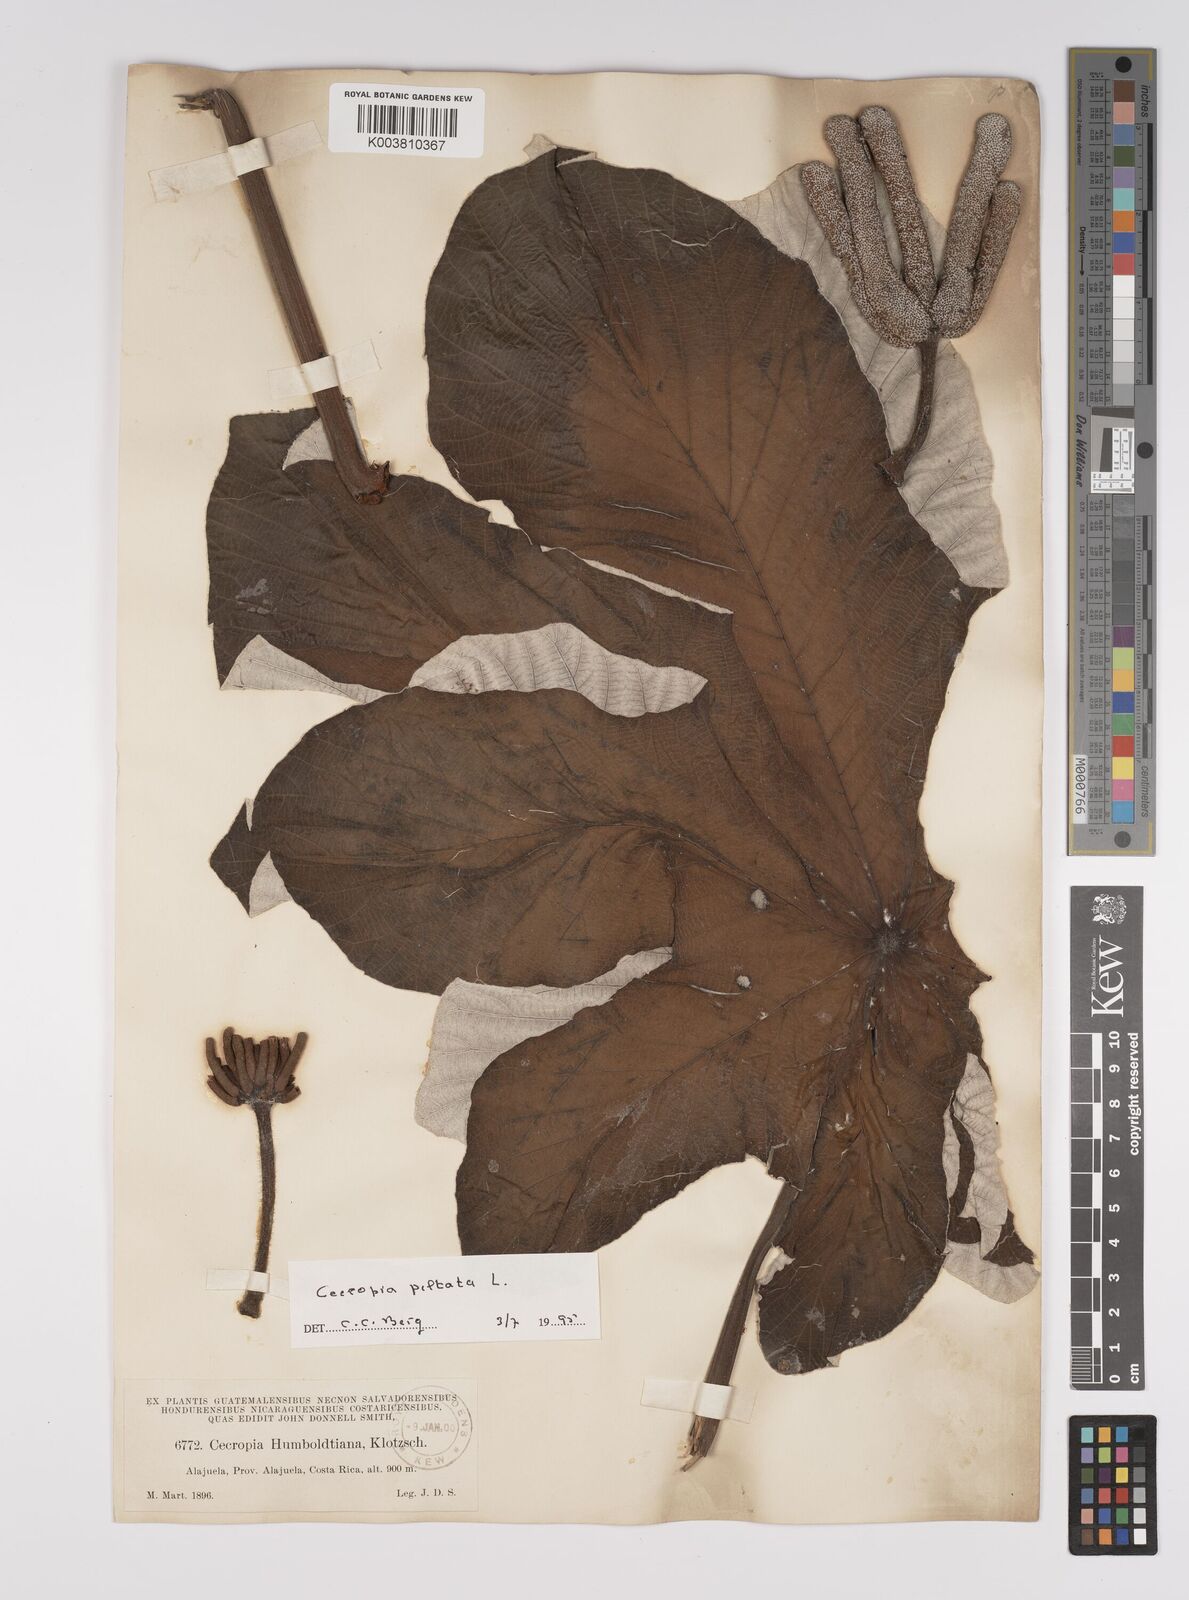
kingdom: Plantae
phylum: Tracheophyta
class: Magnoliopsida
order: Rosales
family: Urticaceae
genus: Cecropia
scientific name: Cecropia peltata
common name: Trumpet-tree
